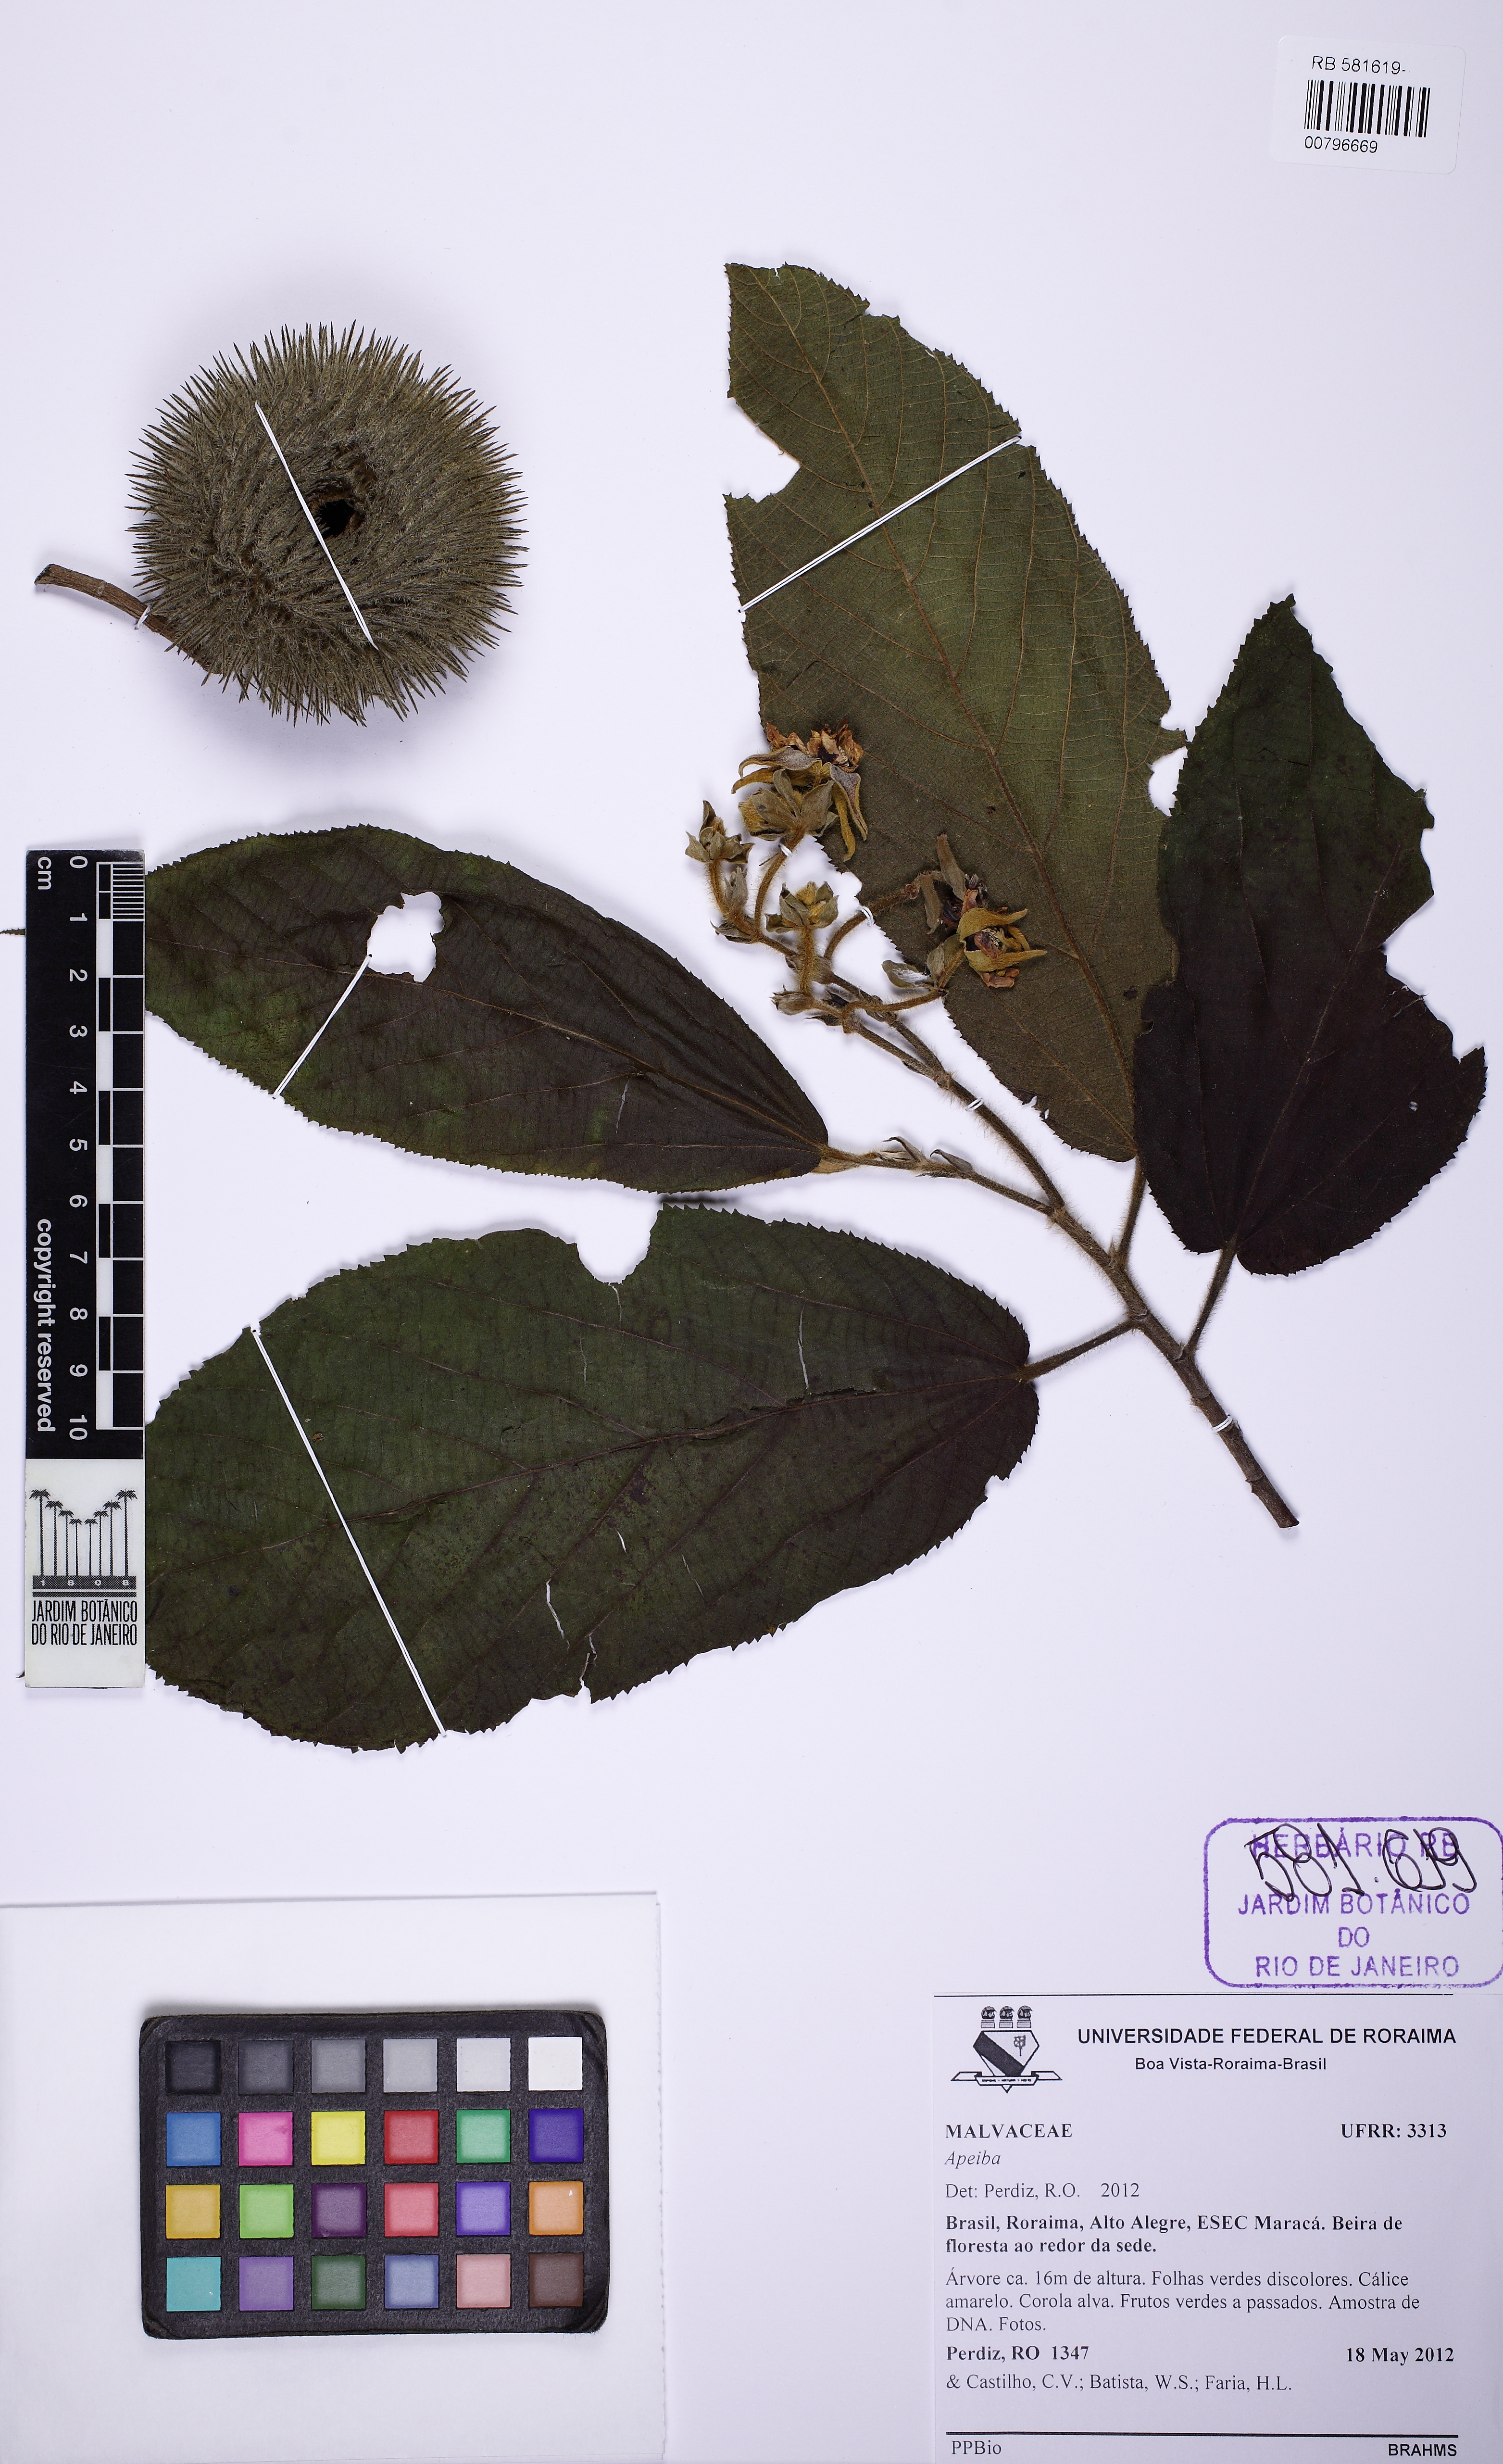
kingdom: Plantae
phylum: Tracheophyta
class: Magnoliopsida
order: Malvales
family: Malvaceae
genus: Apeiba
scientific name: Apeiba schomburgkii
